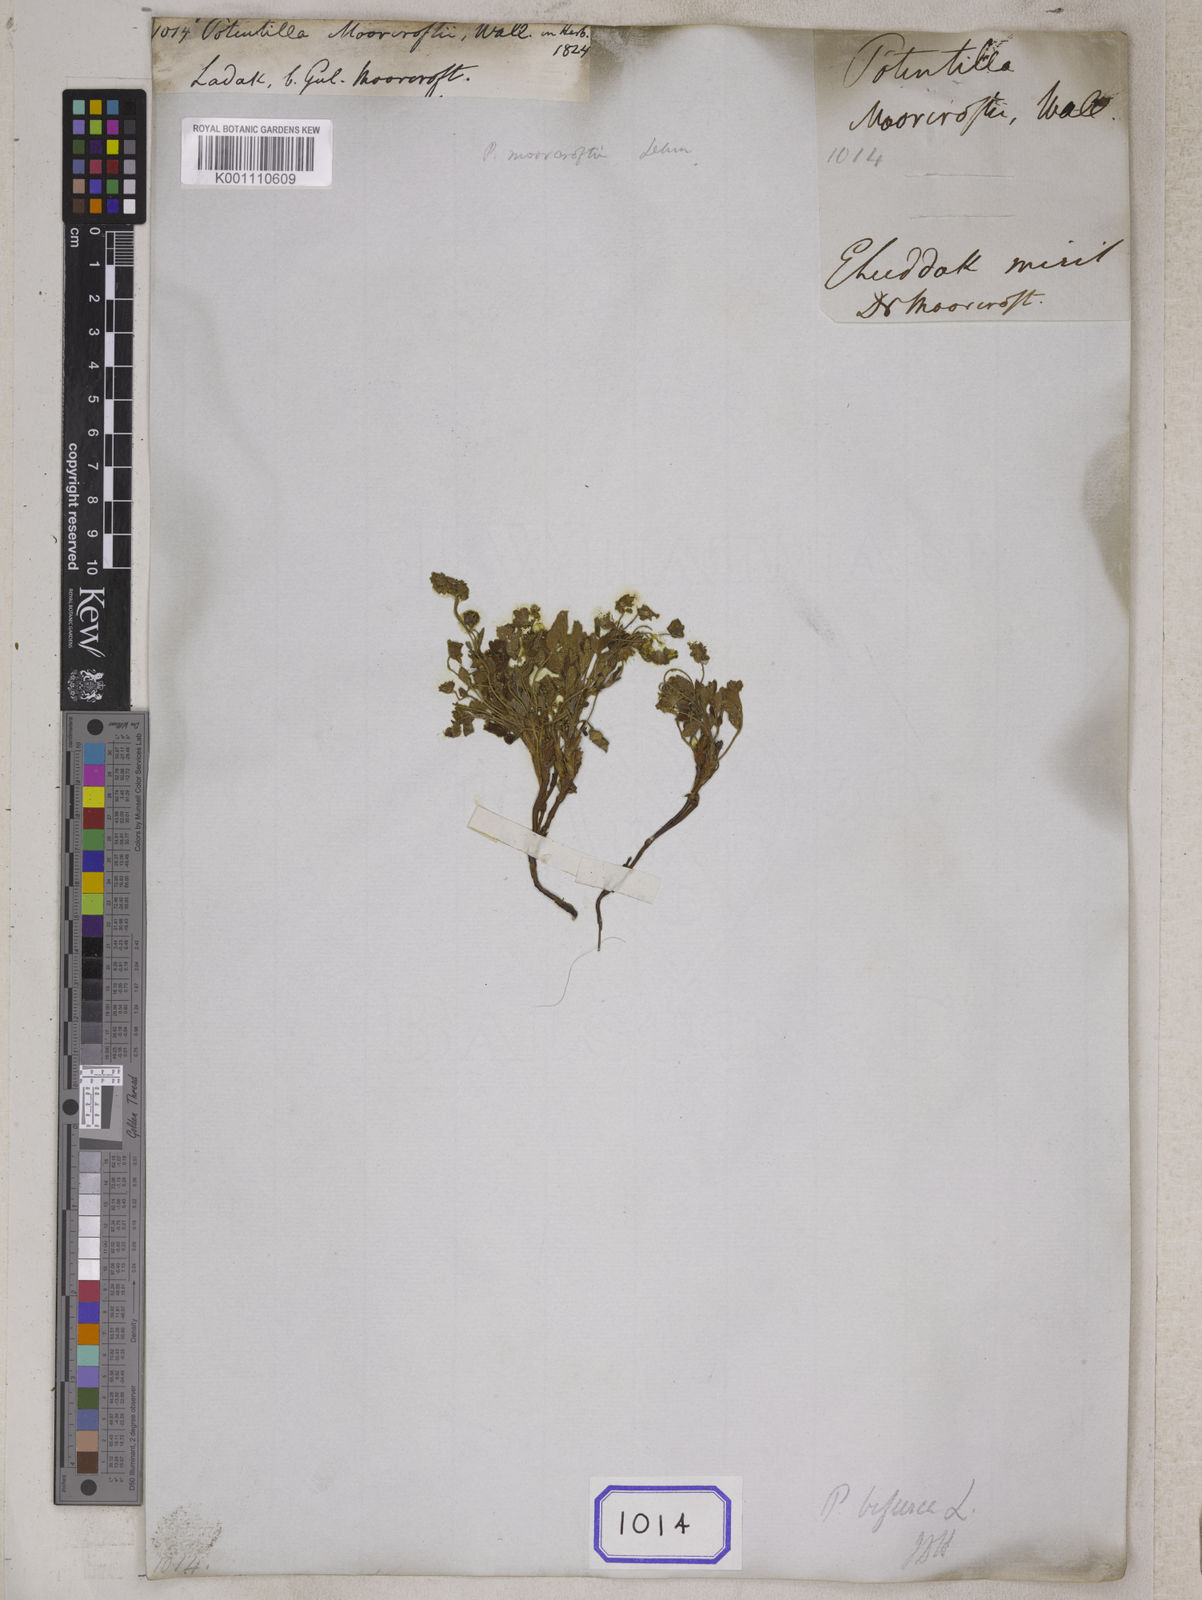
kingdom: Plantae
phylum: Tracheophyta
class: Magnoliopsida
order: Rosales
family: Rosaceae
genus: Potentilla
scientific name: Potentilla
